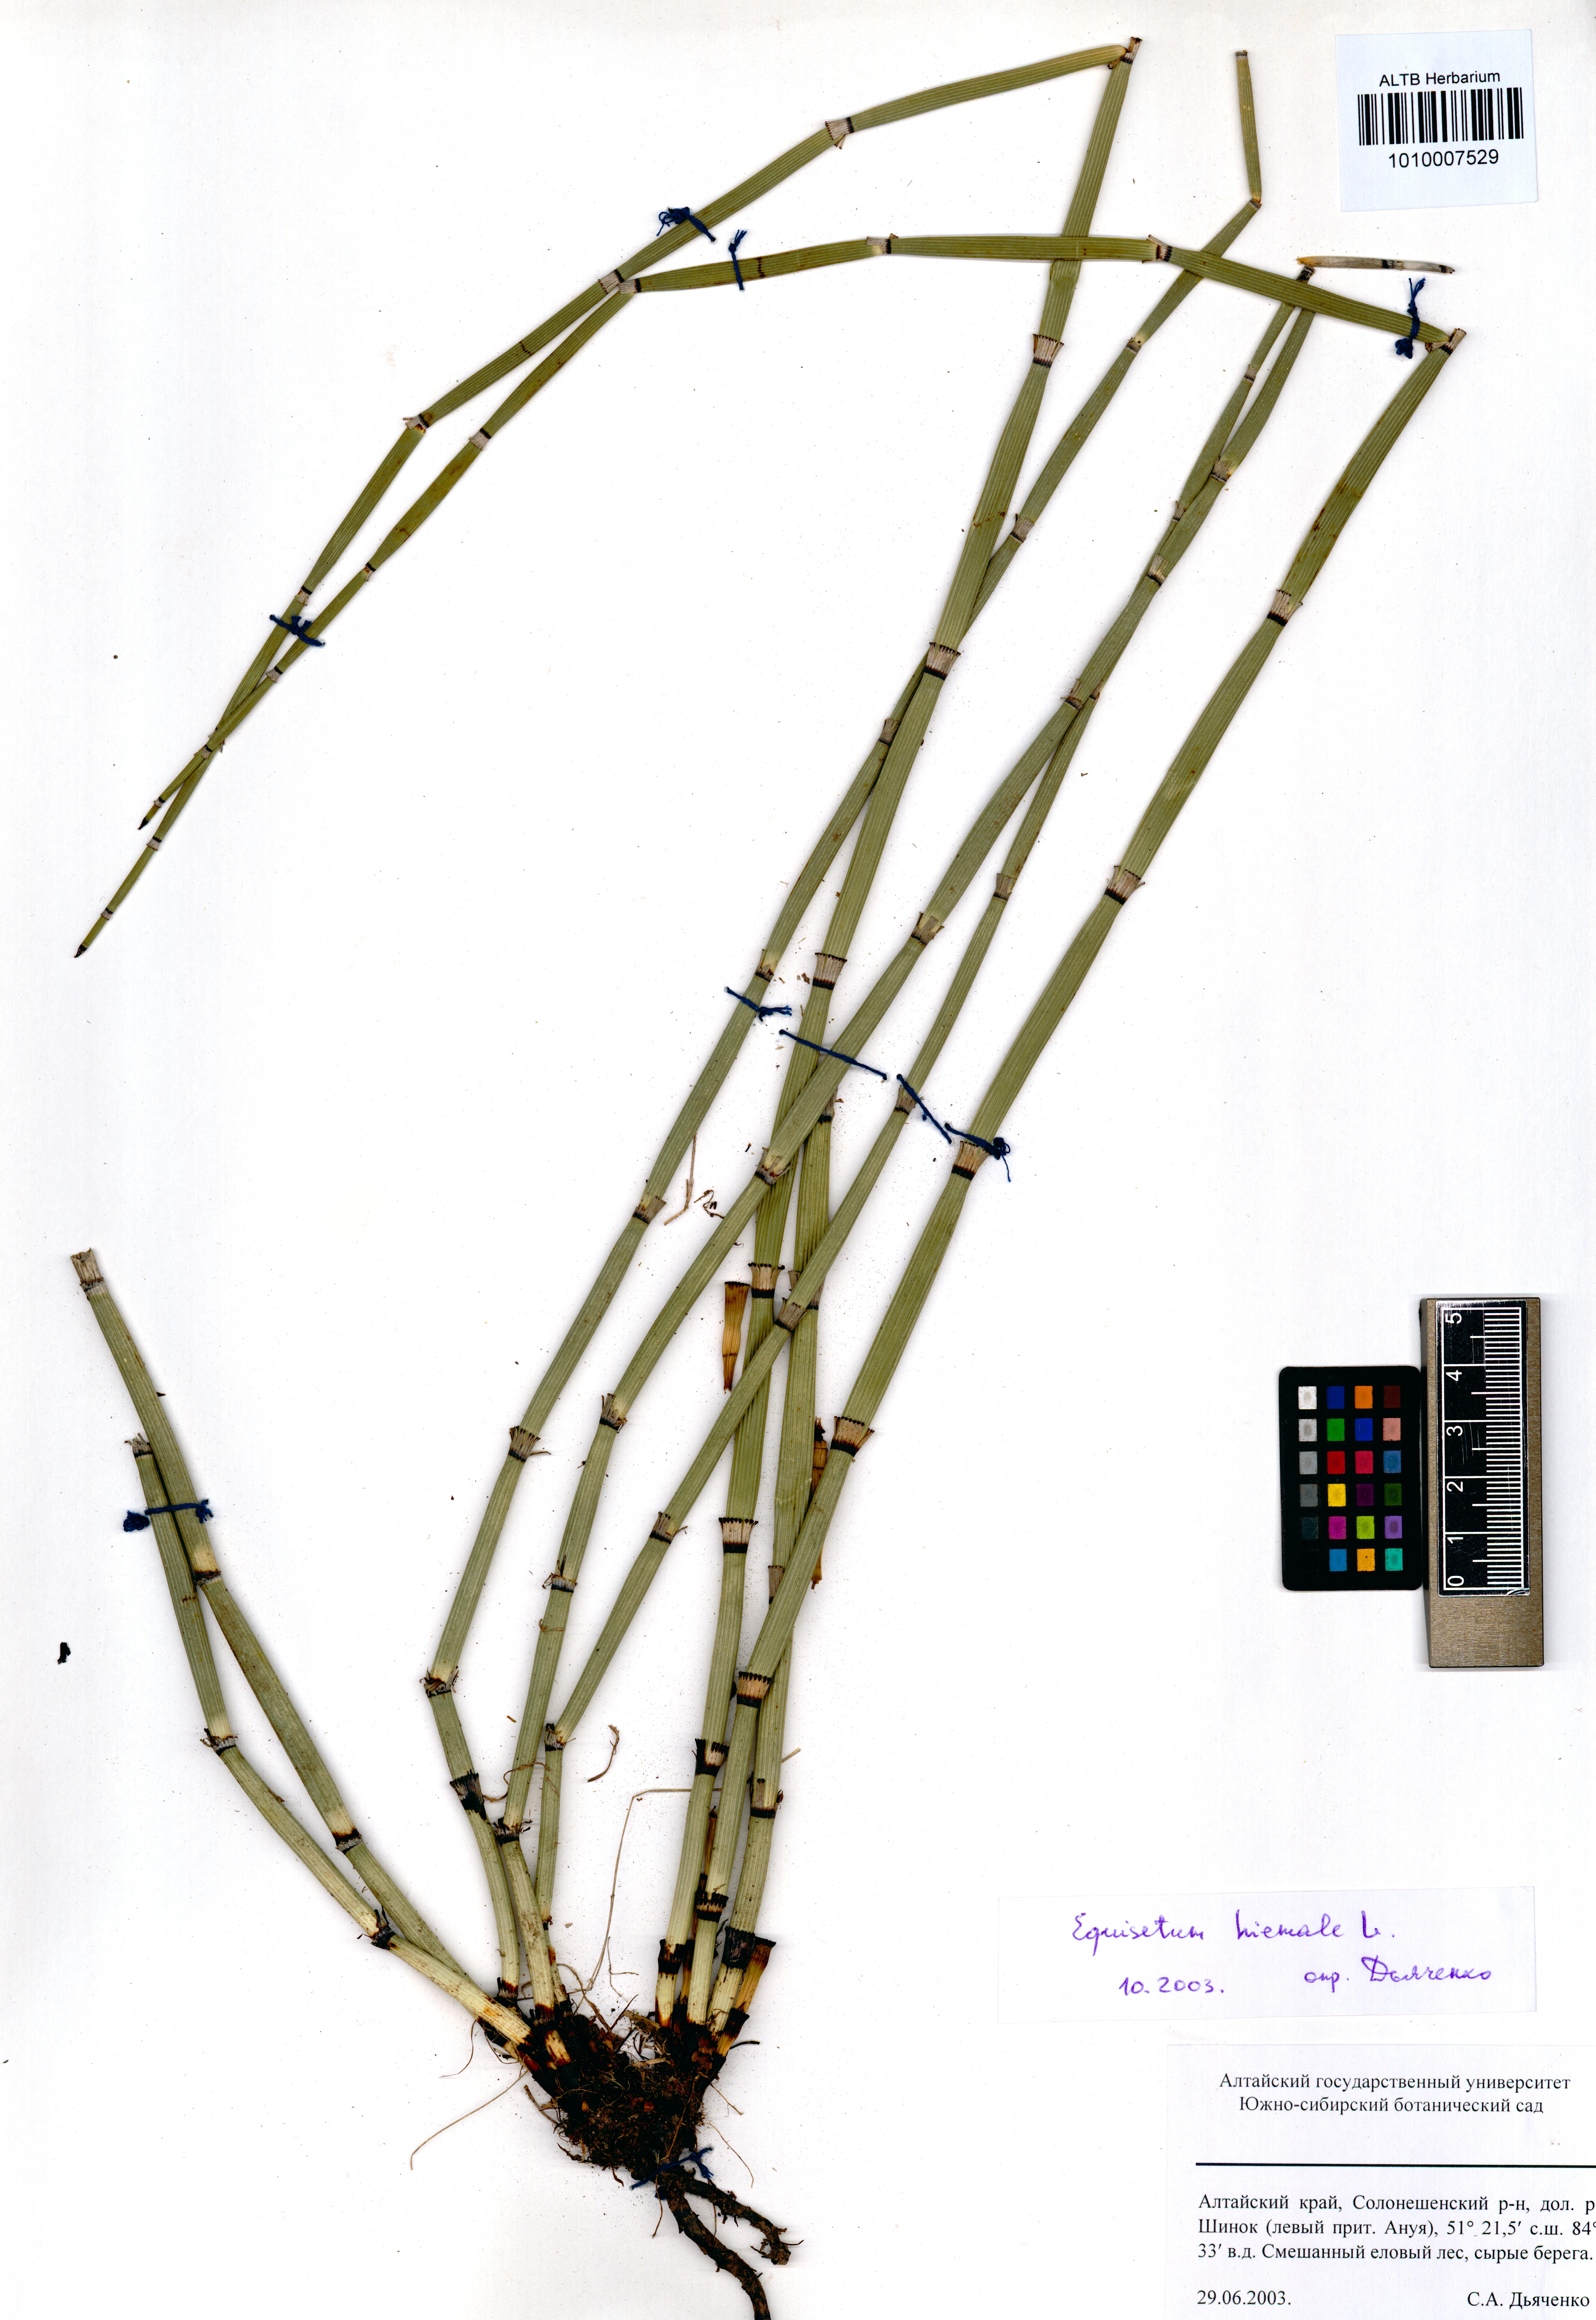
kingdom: Plantae
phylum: Tracheophyta
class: Polypodiopsida
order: Equisetales
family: Equisetaceae
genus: Equisetum
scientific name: Equisetum hyemale
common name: Rough horsetail
